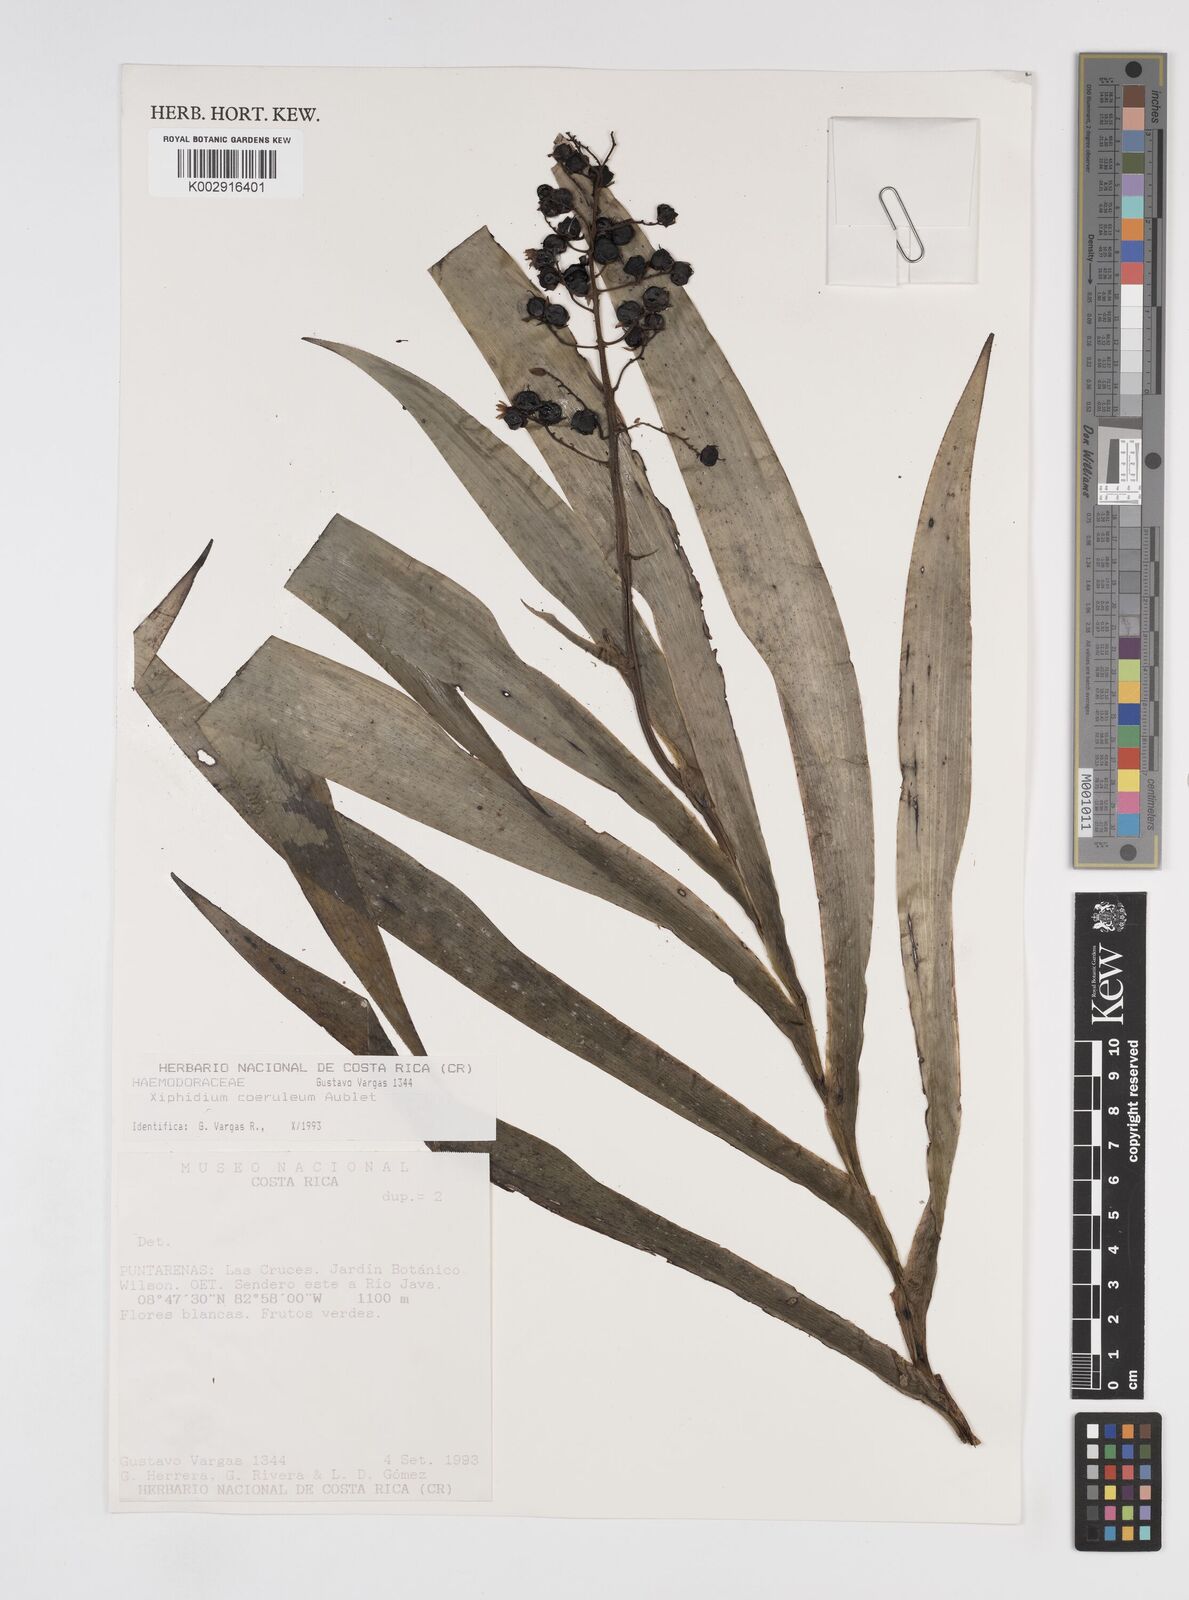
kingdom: Plantae
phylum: Tracheophyta
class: Liliopsida
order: Commelinales
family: Haemodoraceae
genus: Xiphidium
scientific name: Xiphidium caeruleum
